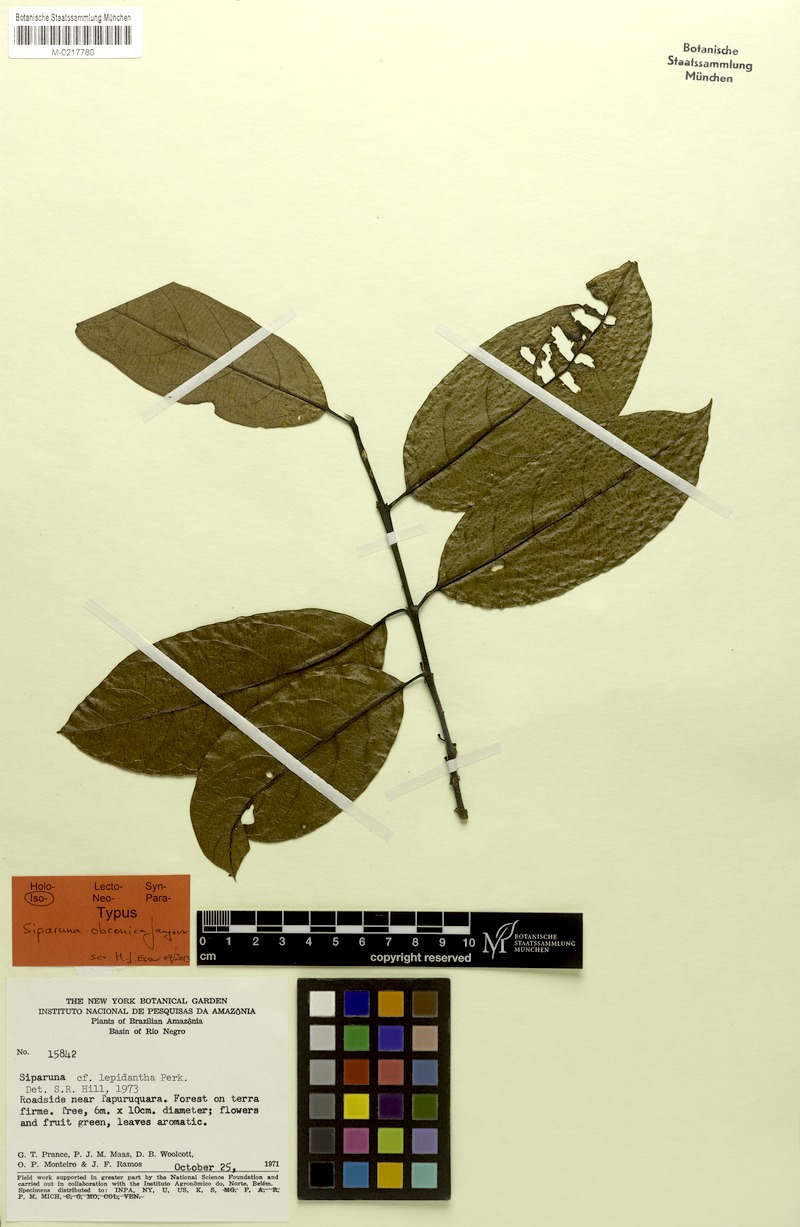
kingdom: Plantae
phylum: Tracheophyta
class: Magnoliopsida
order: Laurales
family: Siparunaceae
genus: Siparuna
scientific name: Siparuna cristata
